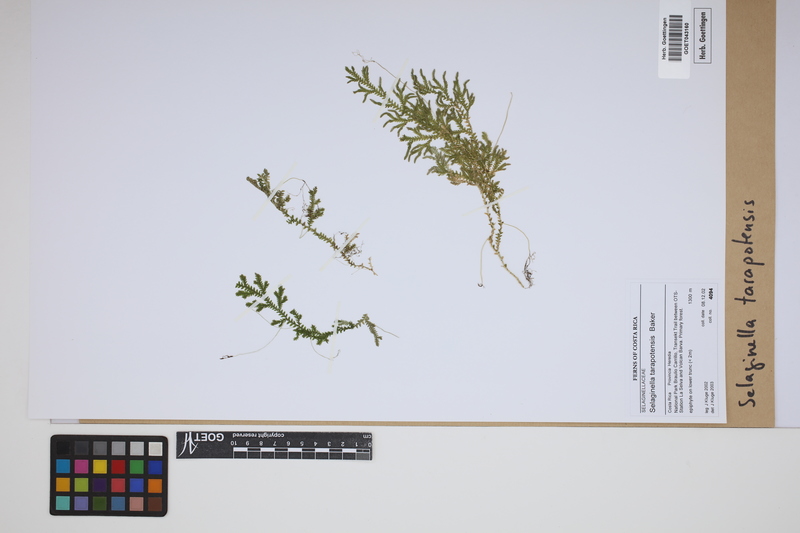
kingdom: Plantae
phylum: Tracheophyta
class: Lycopodiopsida
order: Selaginellales
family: Selaginellaceae
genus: Selaginella
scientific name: Selaginella flexuosa
